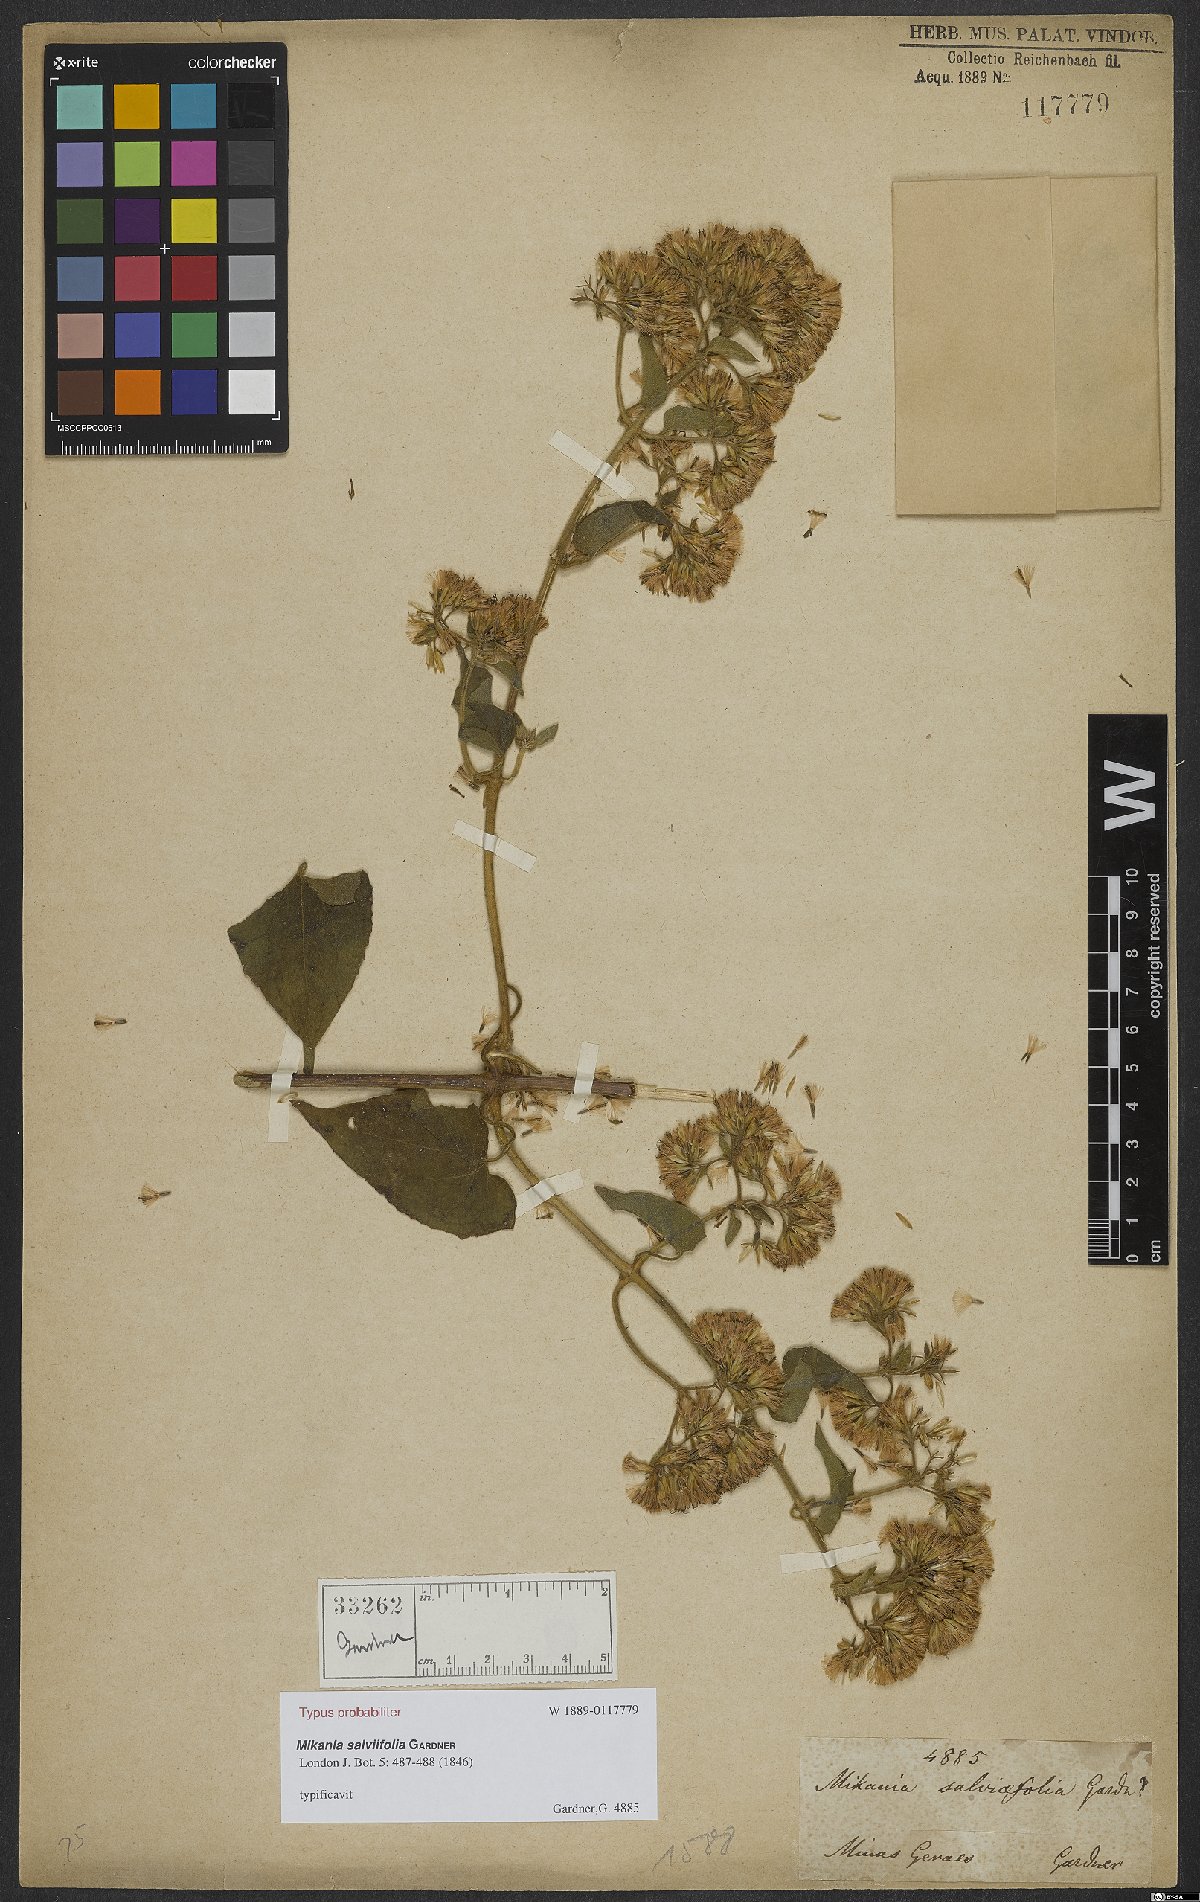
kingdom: Plantae
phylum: Tracheophyta
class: Magnoliopsida
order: Asterales
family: Asteraceae
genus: Mikania
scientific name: Mikania salviifolia
